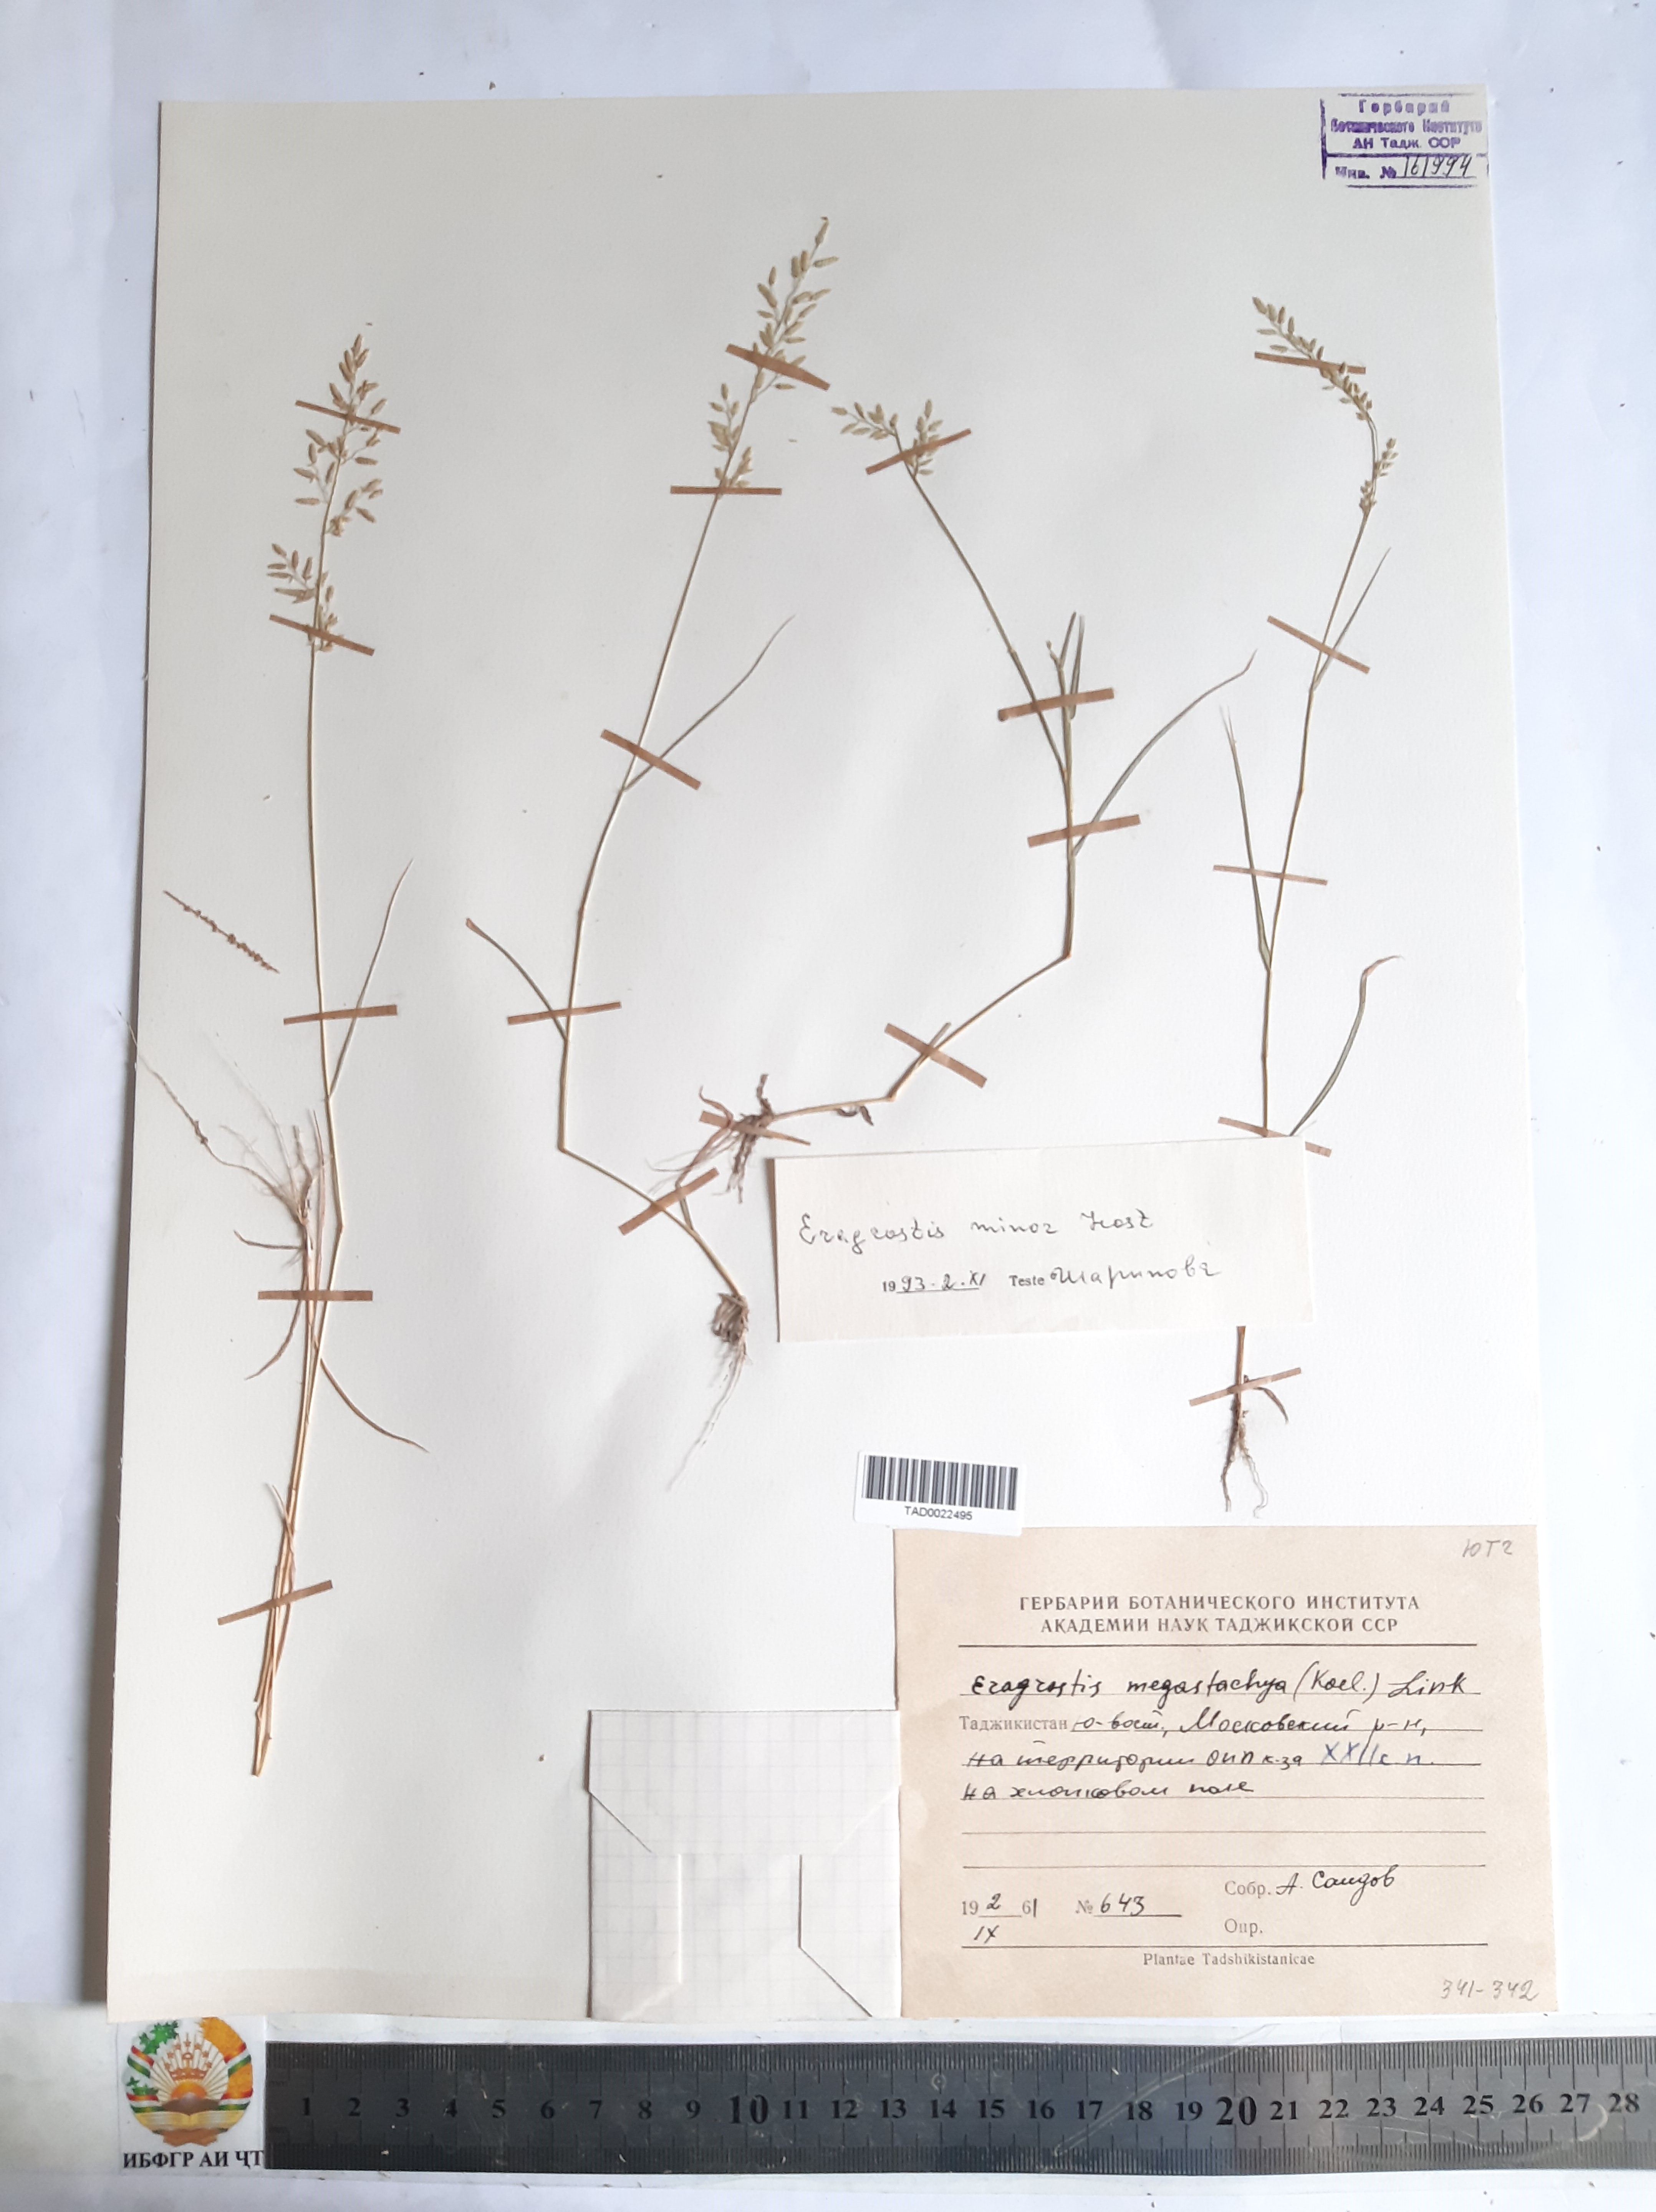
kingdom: Plantae
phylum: Tracheophyta
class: Liliopsida
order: Poales
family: Poaceae
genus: Eragrostis
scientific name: Eragrostis minor
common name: Small love-grass
